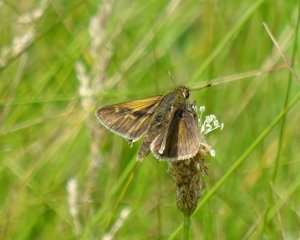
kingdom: Animalia
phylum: Arthropoda
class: Insecta
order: Lepidoptera
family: Hesperiidae
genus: Polites
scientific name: Polites
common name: Long Dash Skipper
